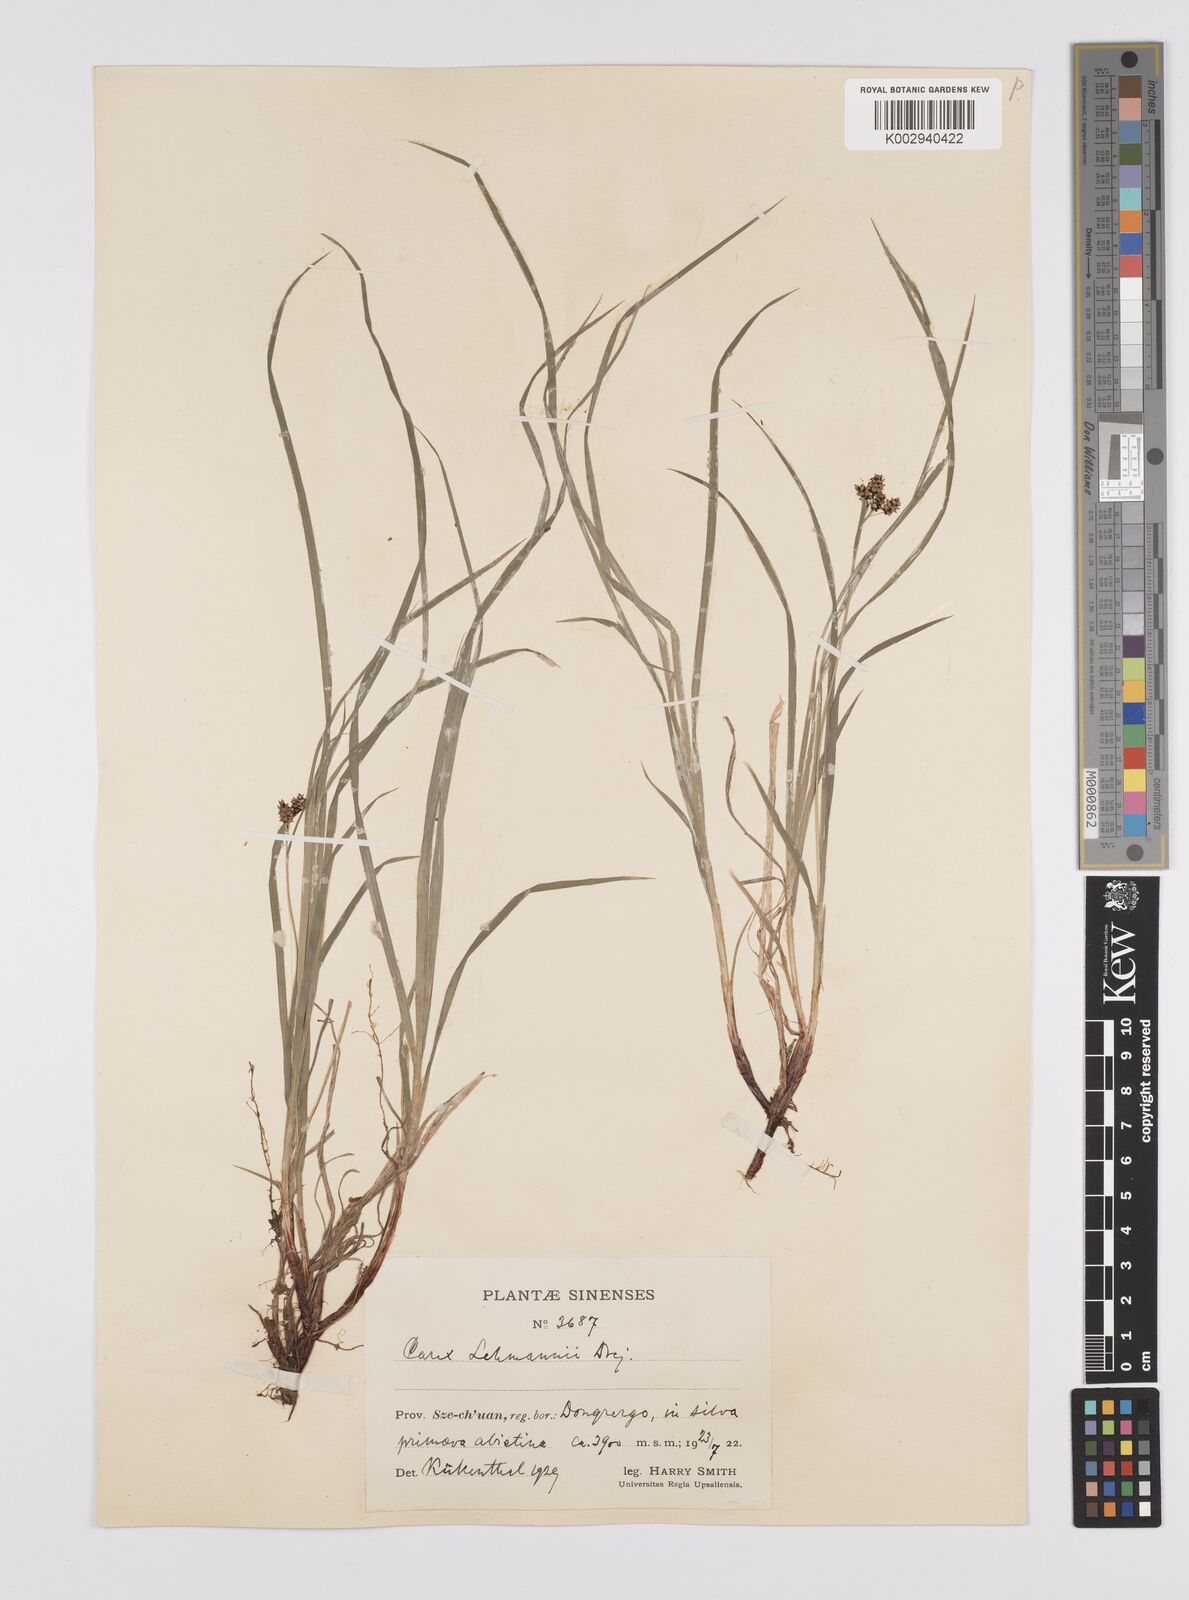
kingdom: Plantae
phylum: Tracheophyta
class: Liliopsida
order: Poales
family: Cyperaceae
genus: Carex
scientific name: Carex lehmannii
